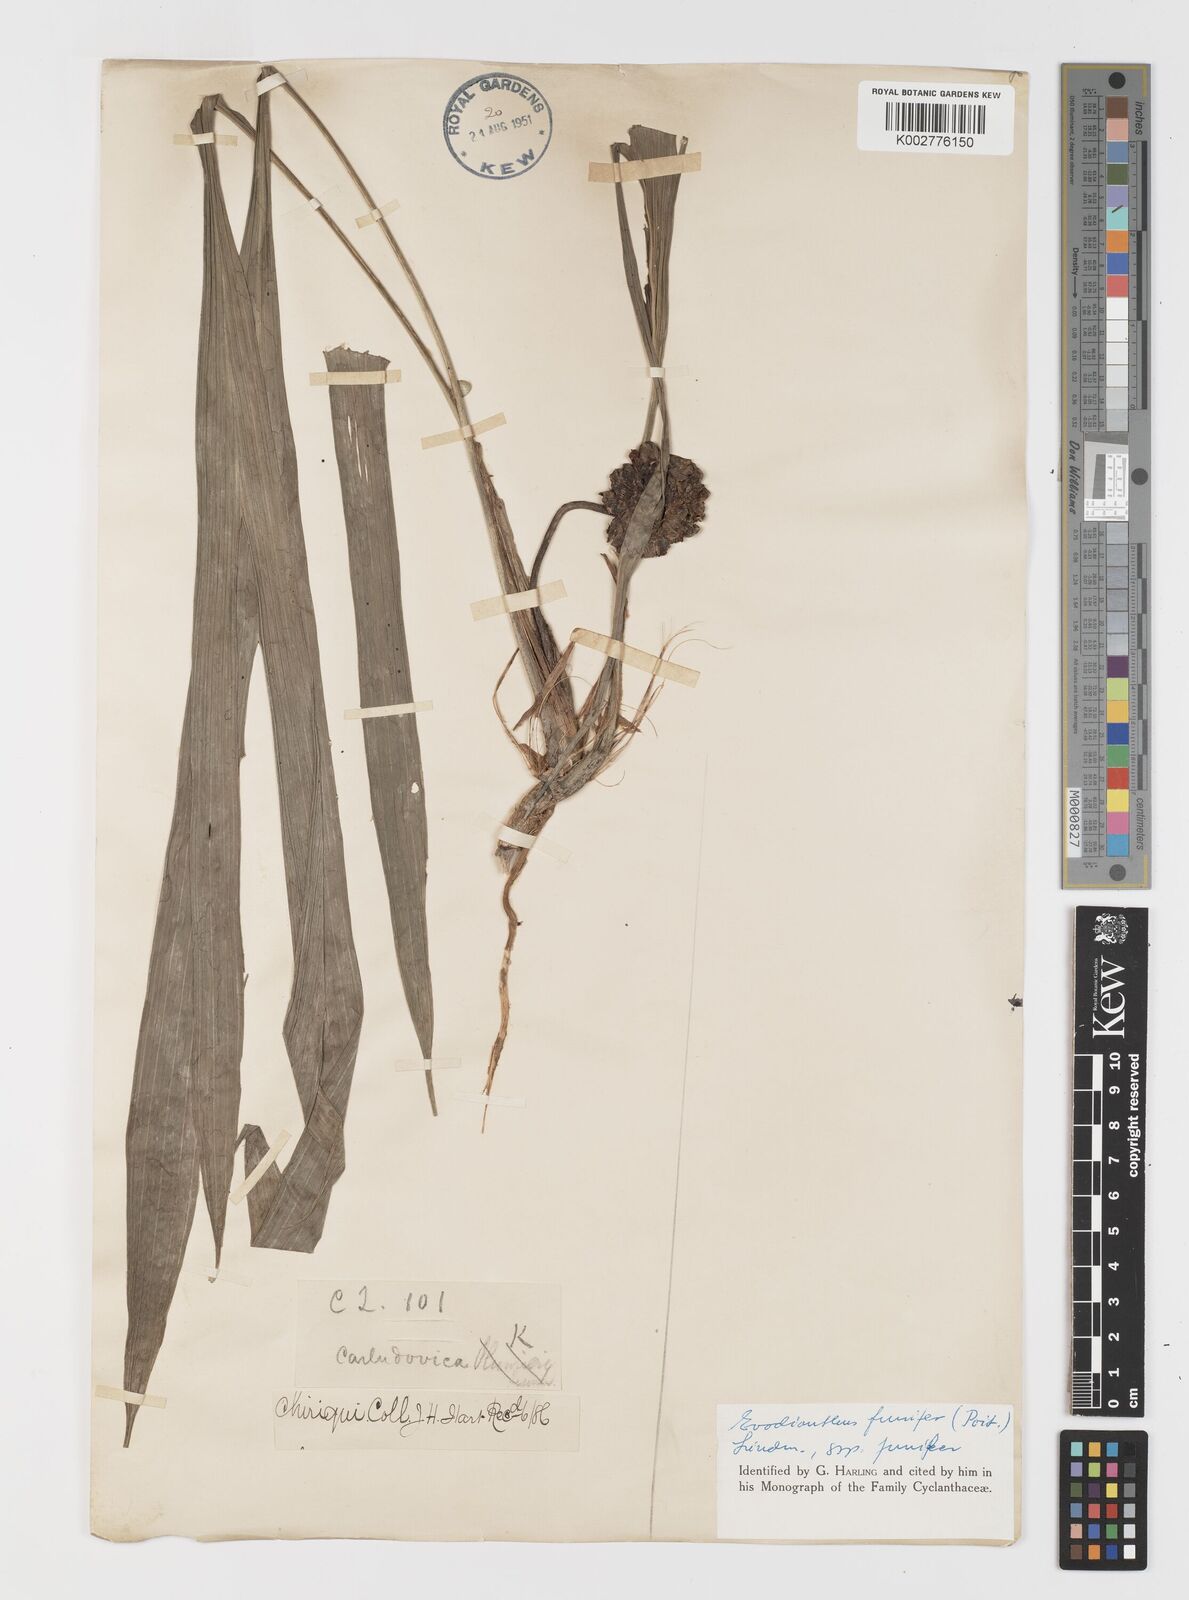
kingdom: Plantae
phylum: Tracheophyta
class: Liliopsida
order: Pandanales
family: Cyclanthaceae
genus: Evodianthus
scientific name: Evodianthus funifer
